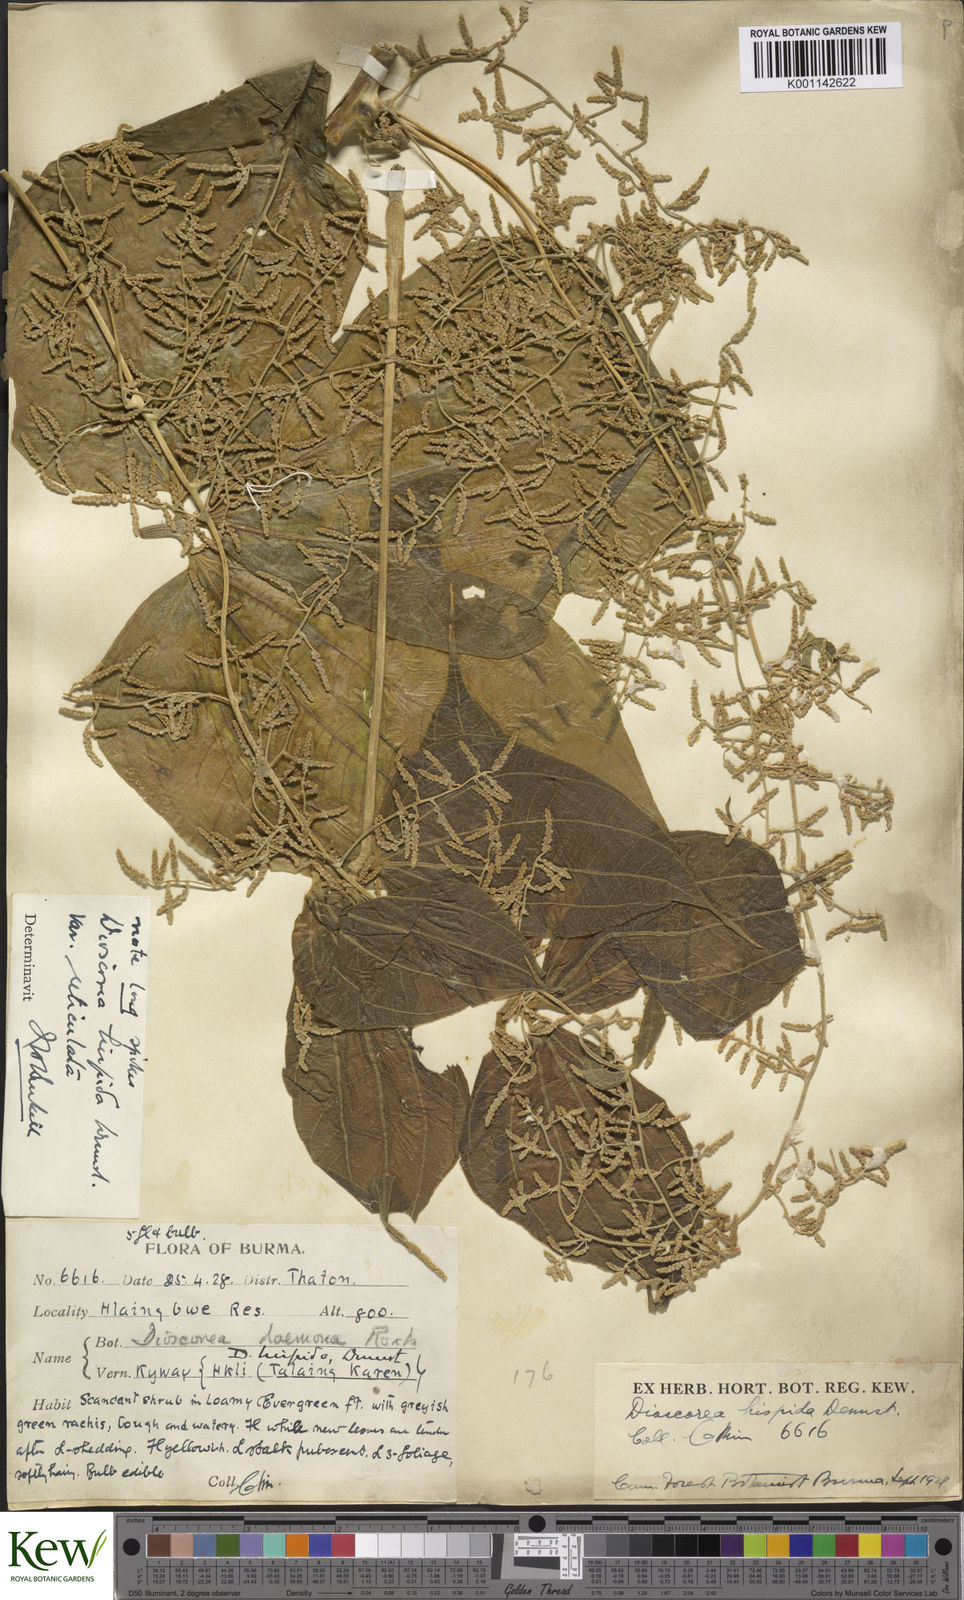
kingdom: Plantae
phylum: Tracheophyta
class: Liliopsida
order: Dioscoreales
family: Dioscoreaceae
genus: Dioscorea
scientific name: Dioscorea pentaphylla
